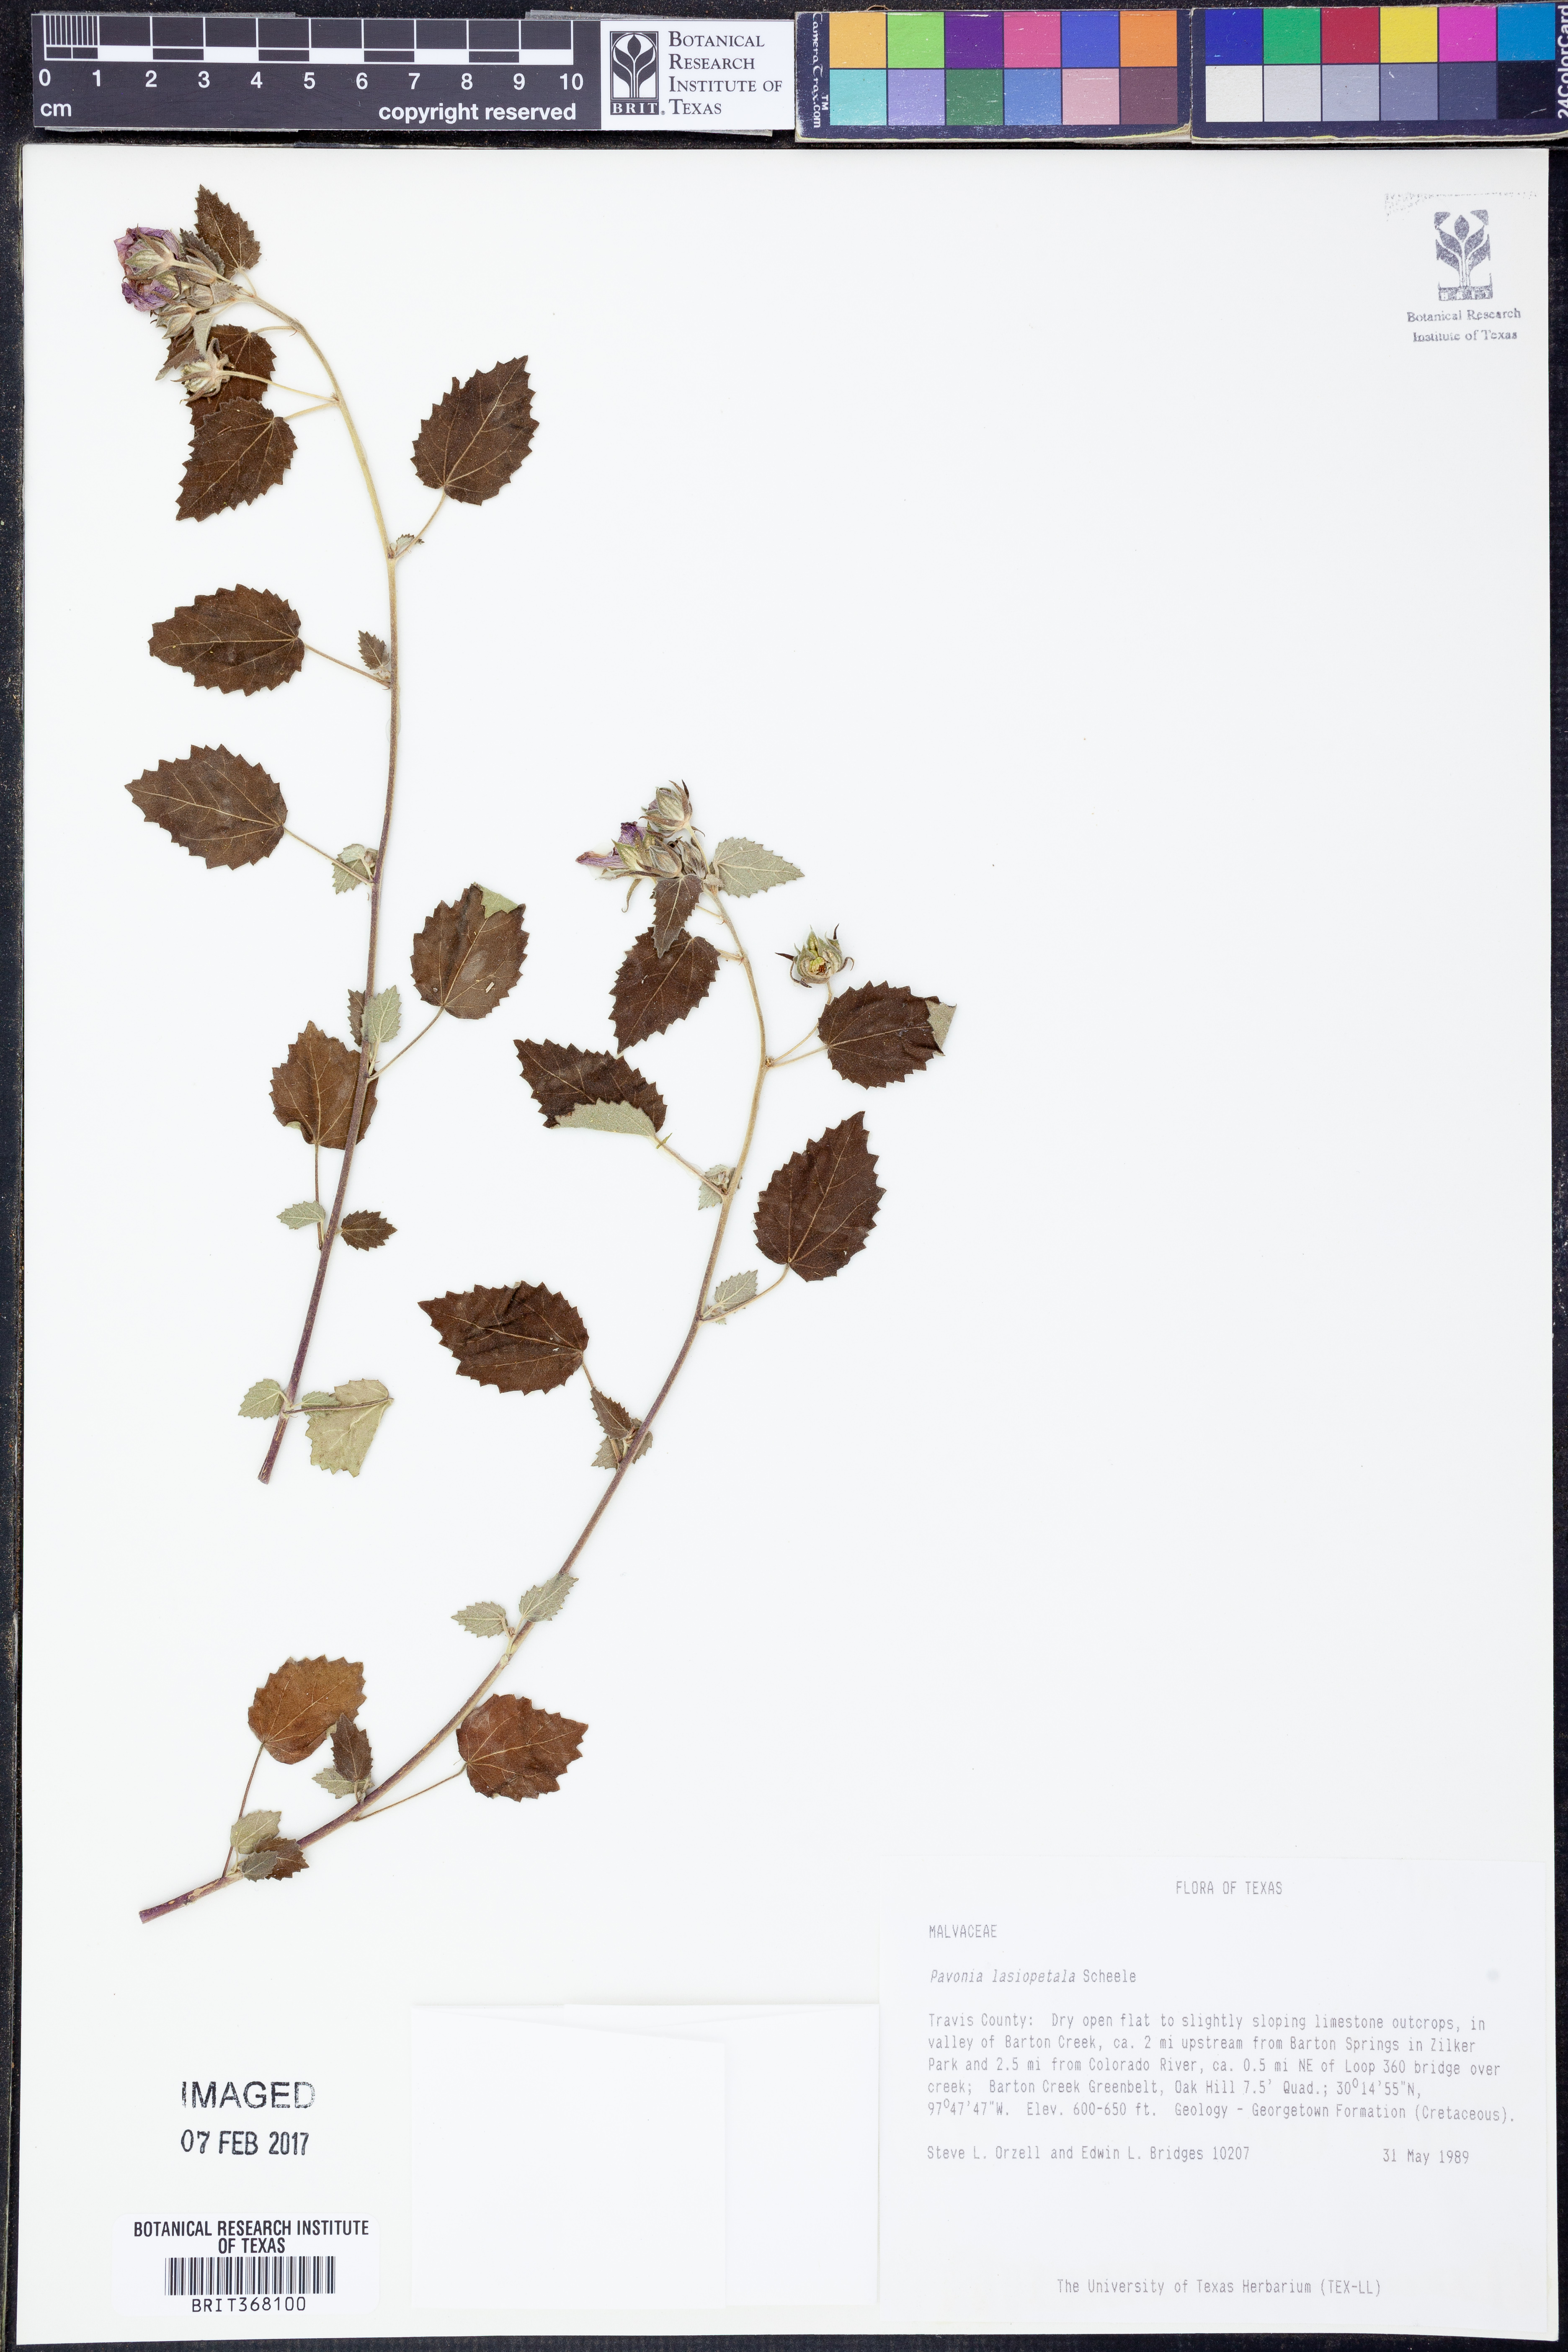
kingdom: Plantae
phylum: Tracheophyta
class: Magnoliopsida
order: Malvales
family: Malvaceae
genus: Pavonia
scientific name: Pavonia lasiopetala
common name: Texas swamp-mallow
